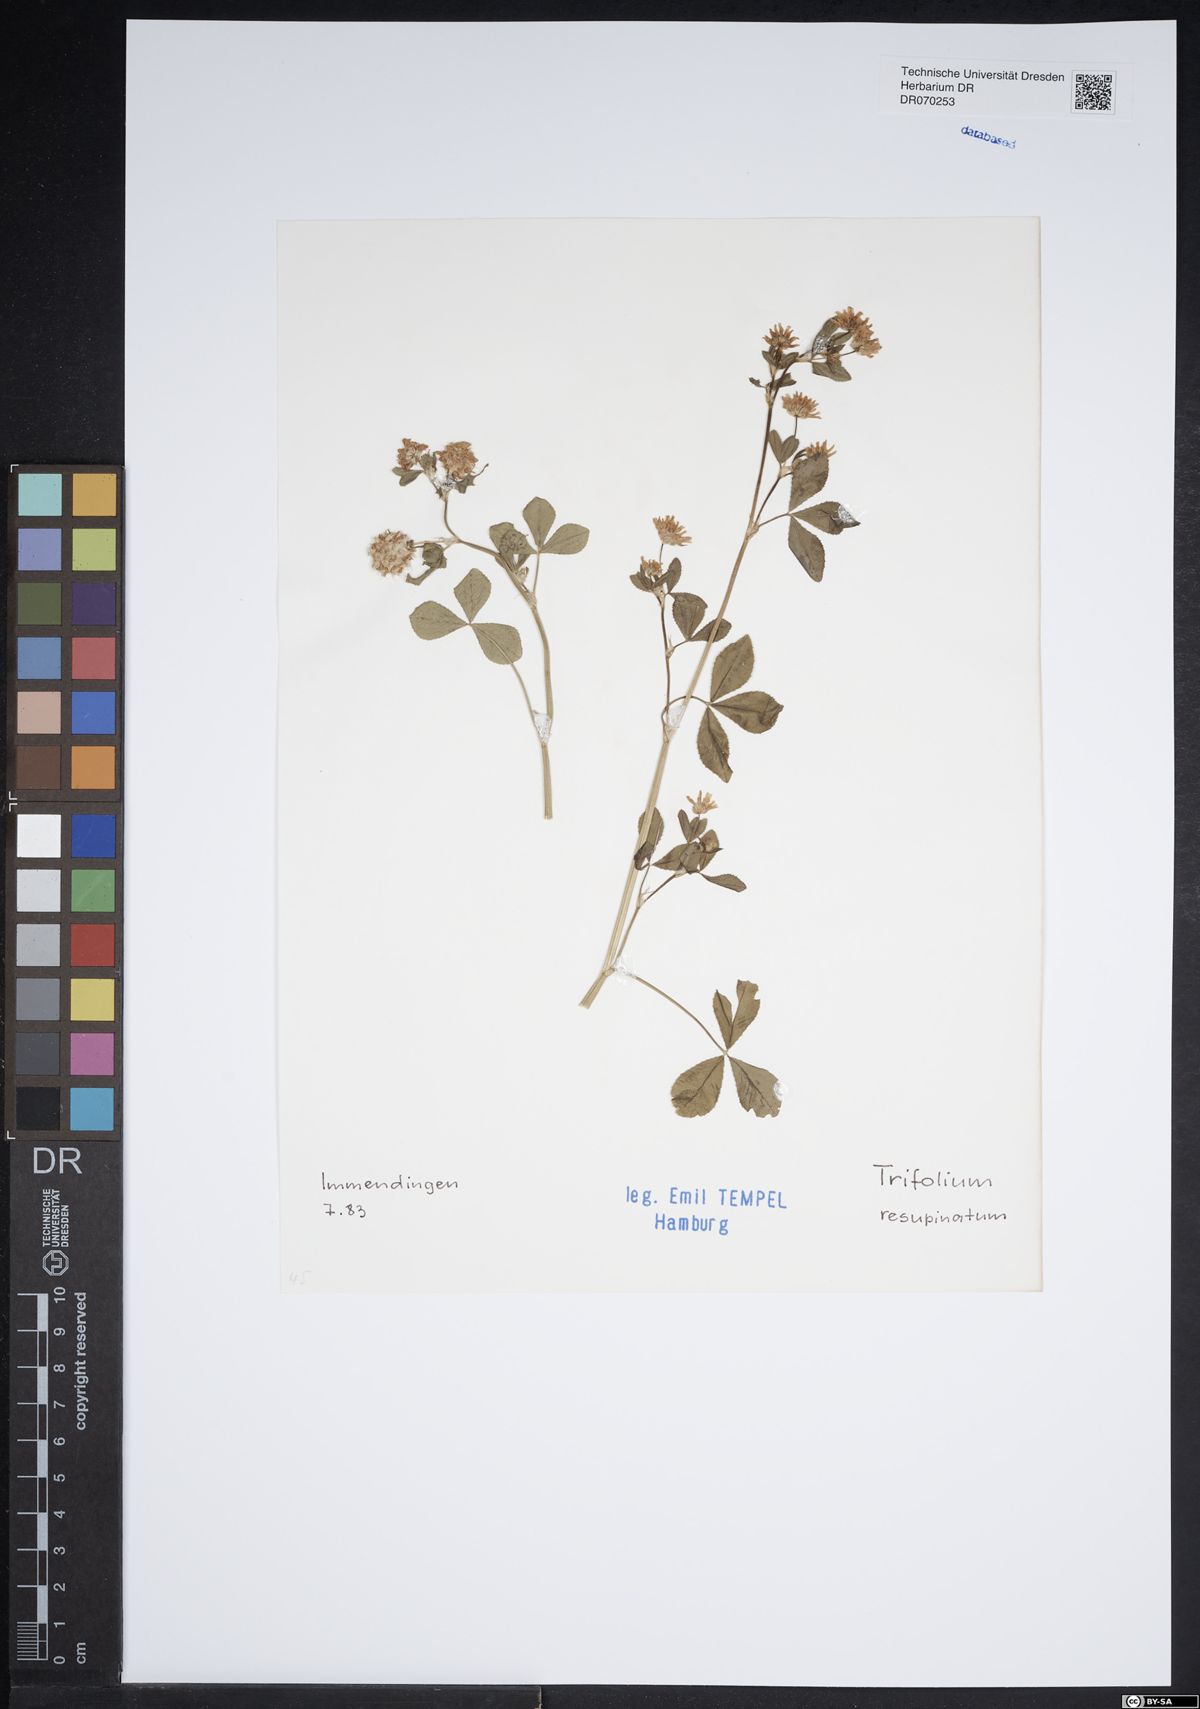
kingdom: Plantae
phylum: Tracheophyta
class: Magnoliopsida
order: Fabales
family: Fabaceae
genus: Trifolium
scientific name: Trifolium resupinatum
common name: Reversed clover
